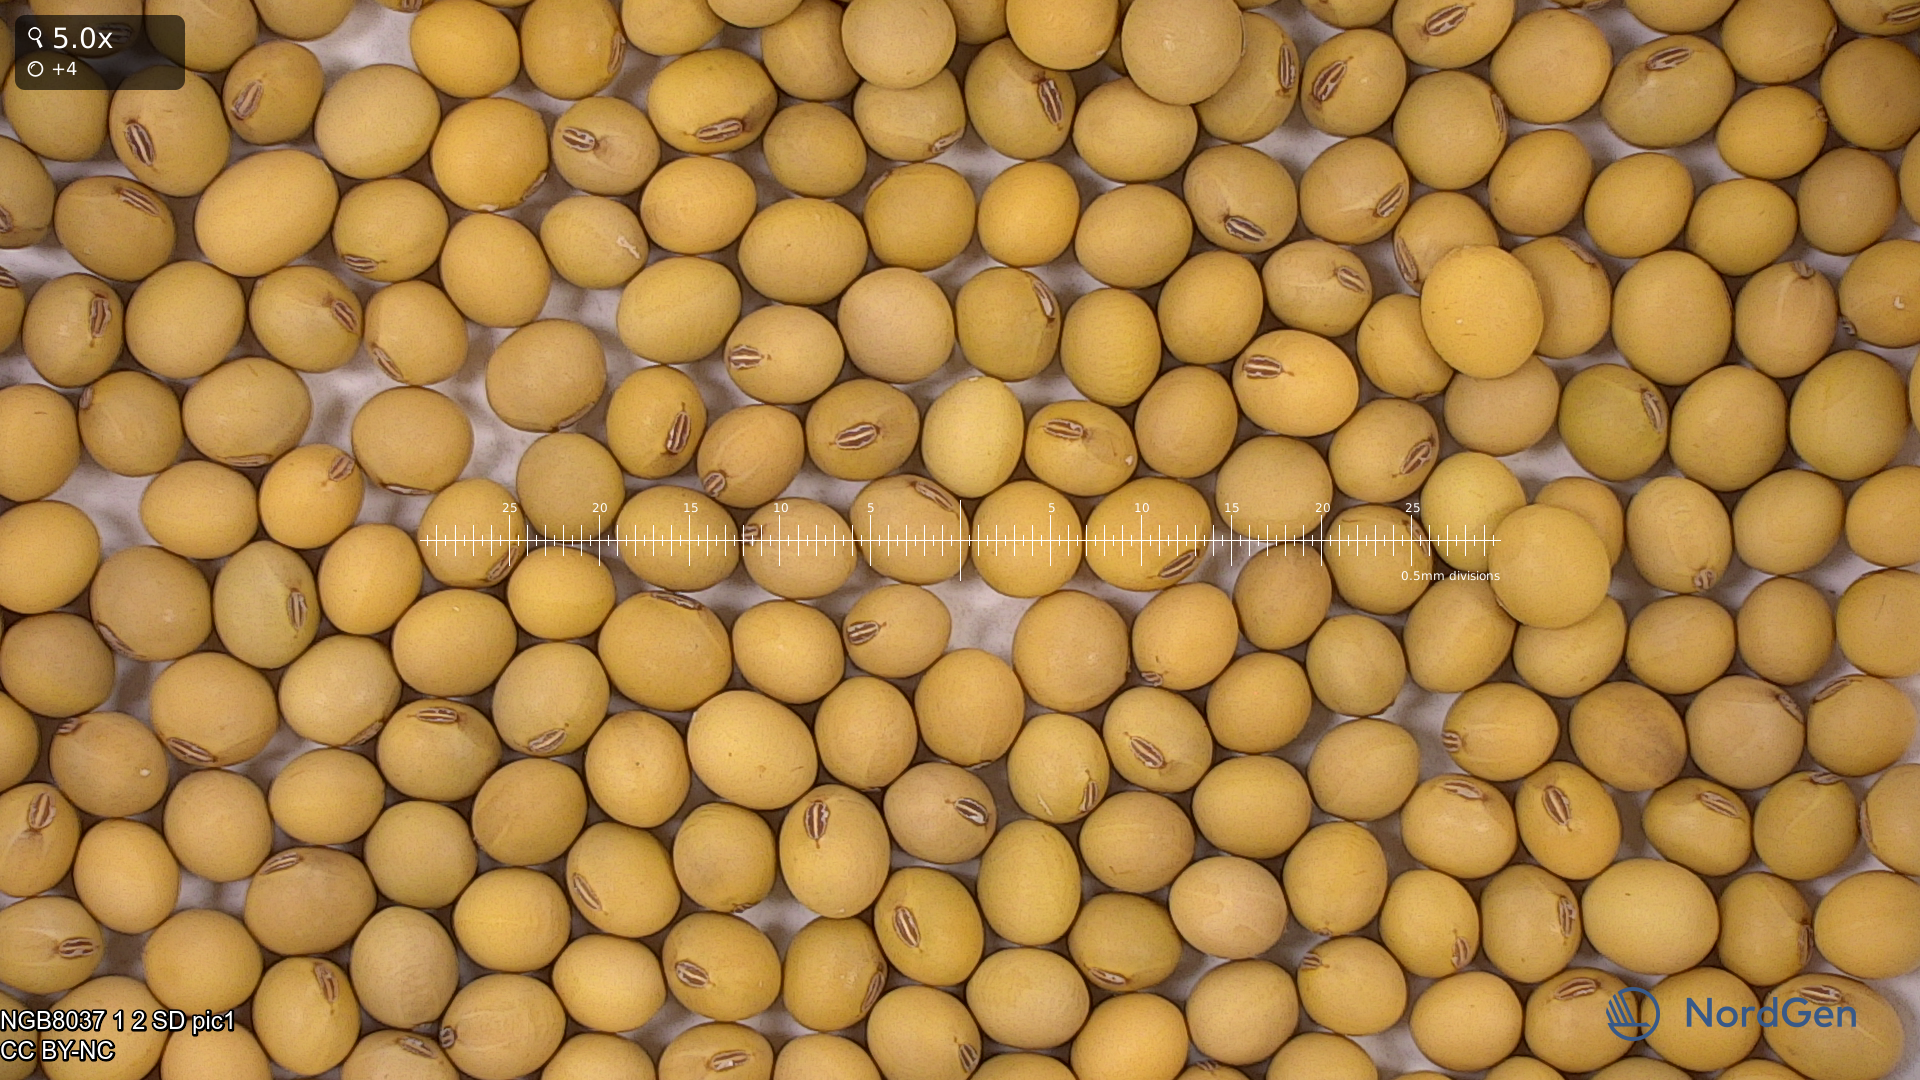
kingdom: Plantae
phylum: Tracheophyta
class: Magnoliopsida
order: Fabales
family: Fabaceae
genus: Glycine
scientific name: Glycine max
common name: Soya-bean
